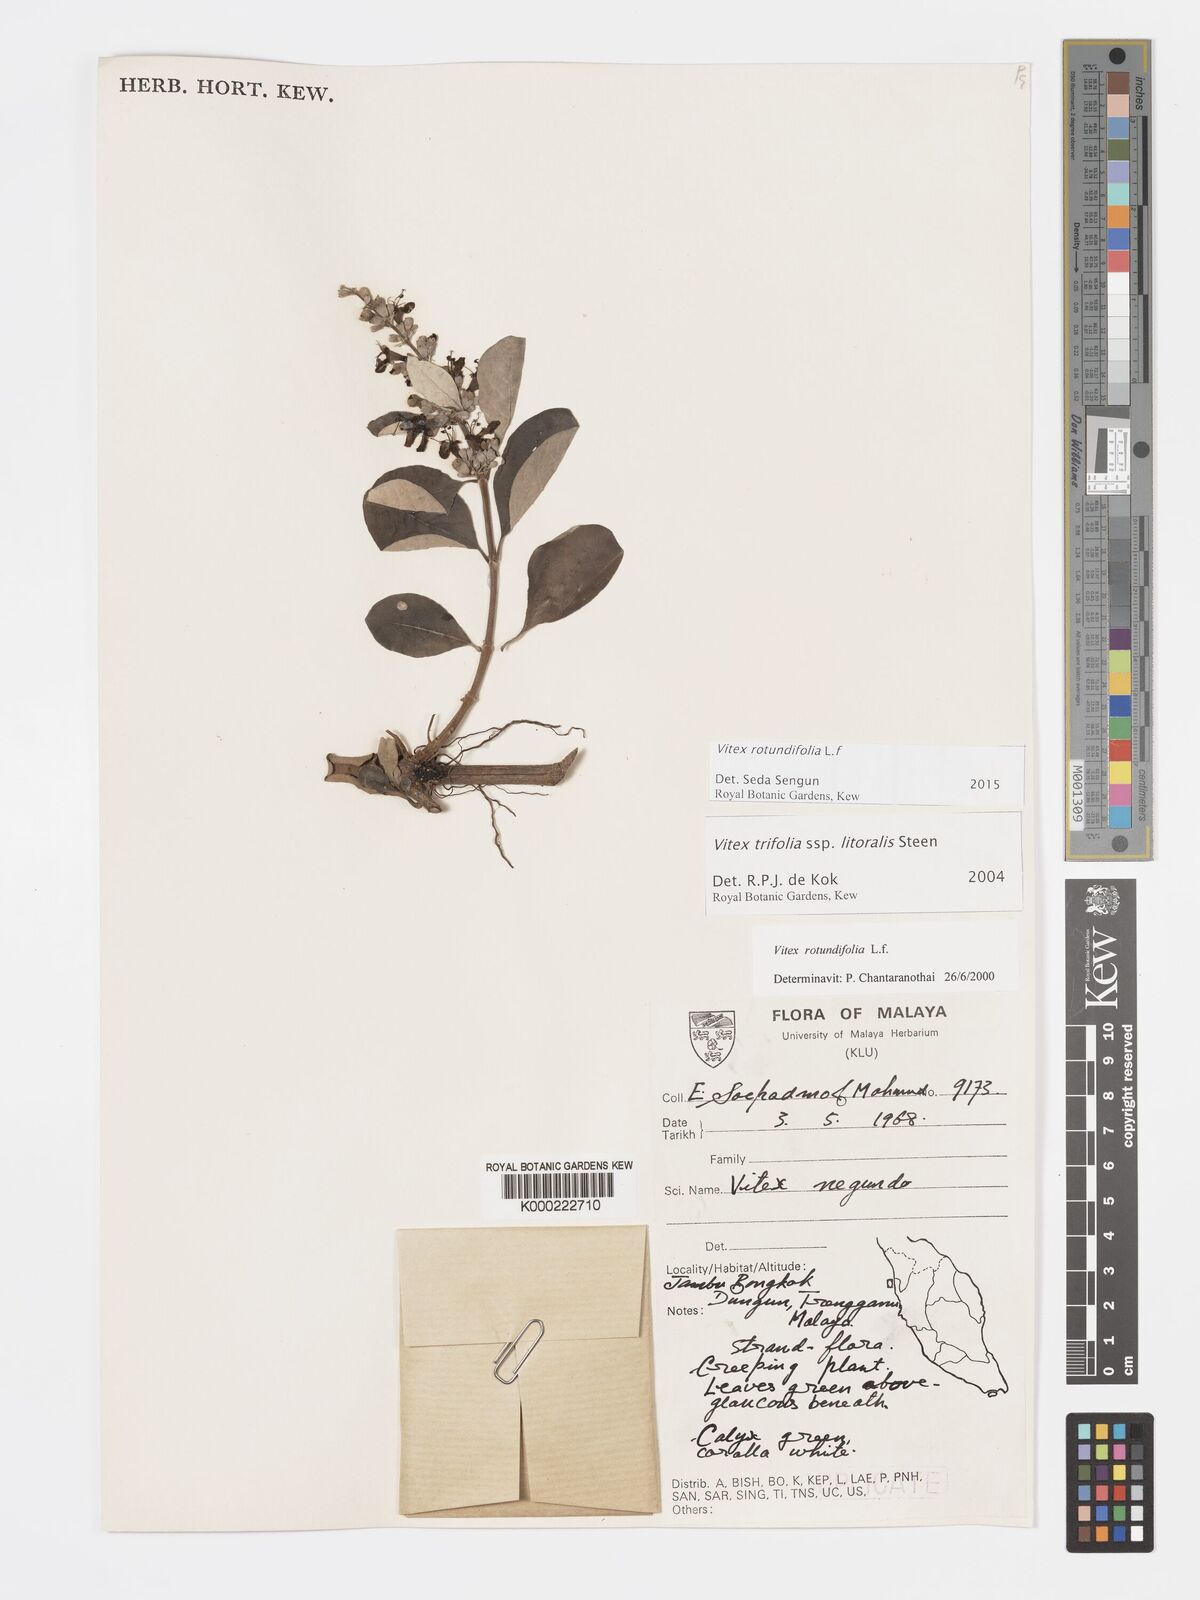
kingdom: Plantae
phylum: Tracheophyta
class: Magnoliopsida
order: Lamiales
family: Lamiaceae
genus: Vitex
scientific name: Vitex rotundifolia
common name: Beach vitex
